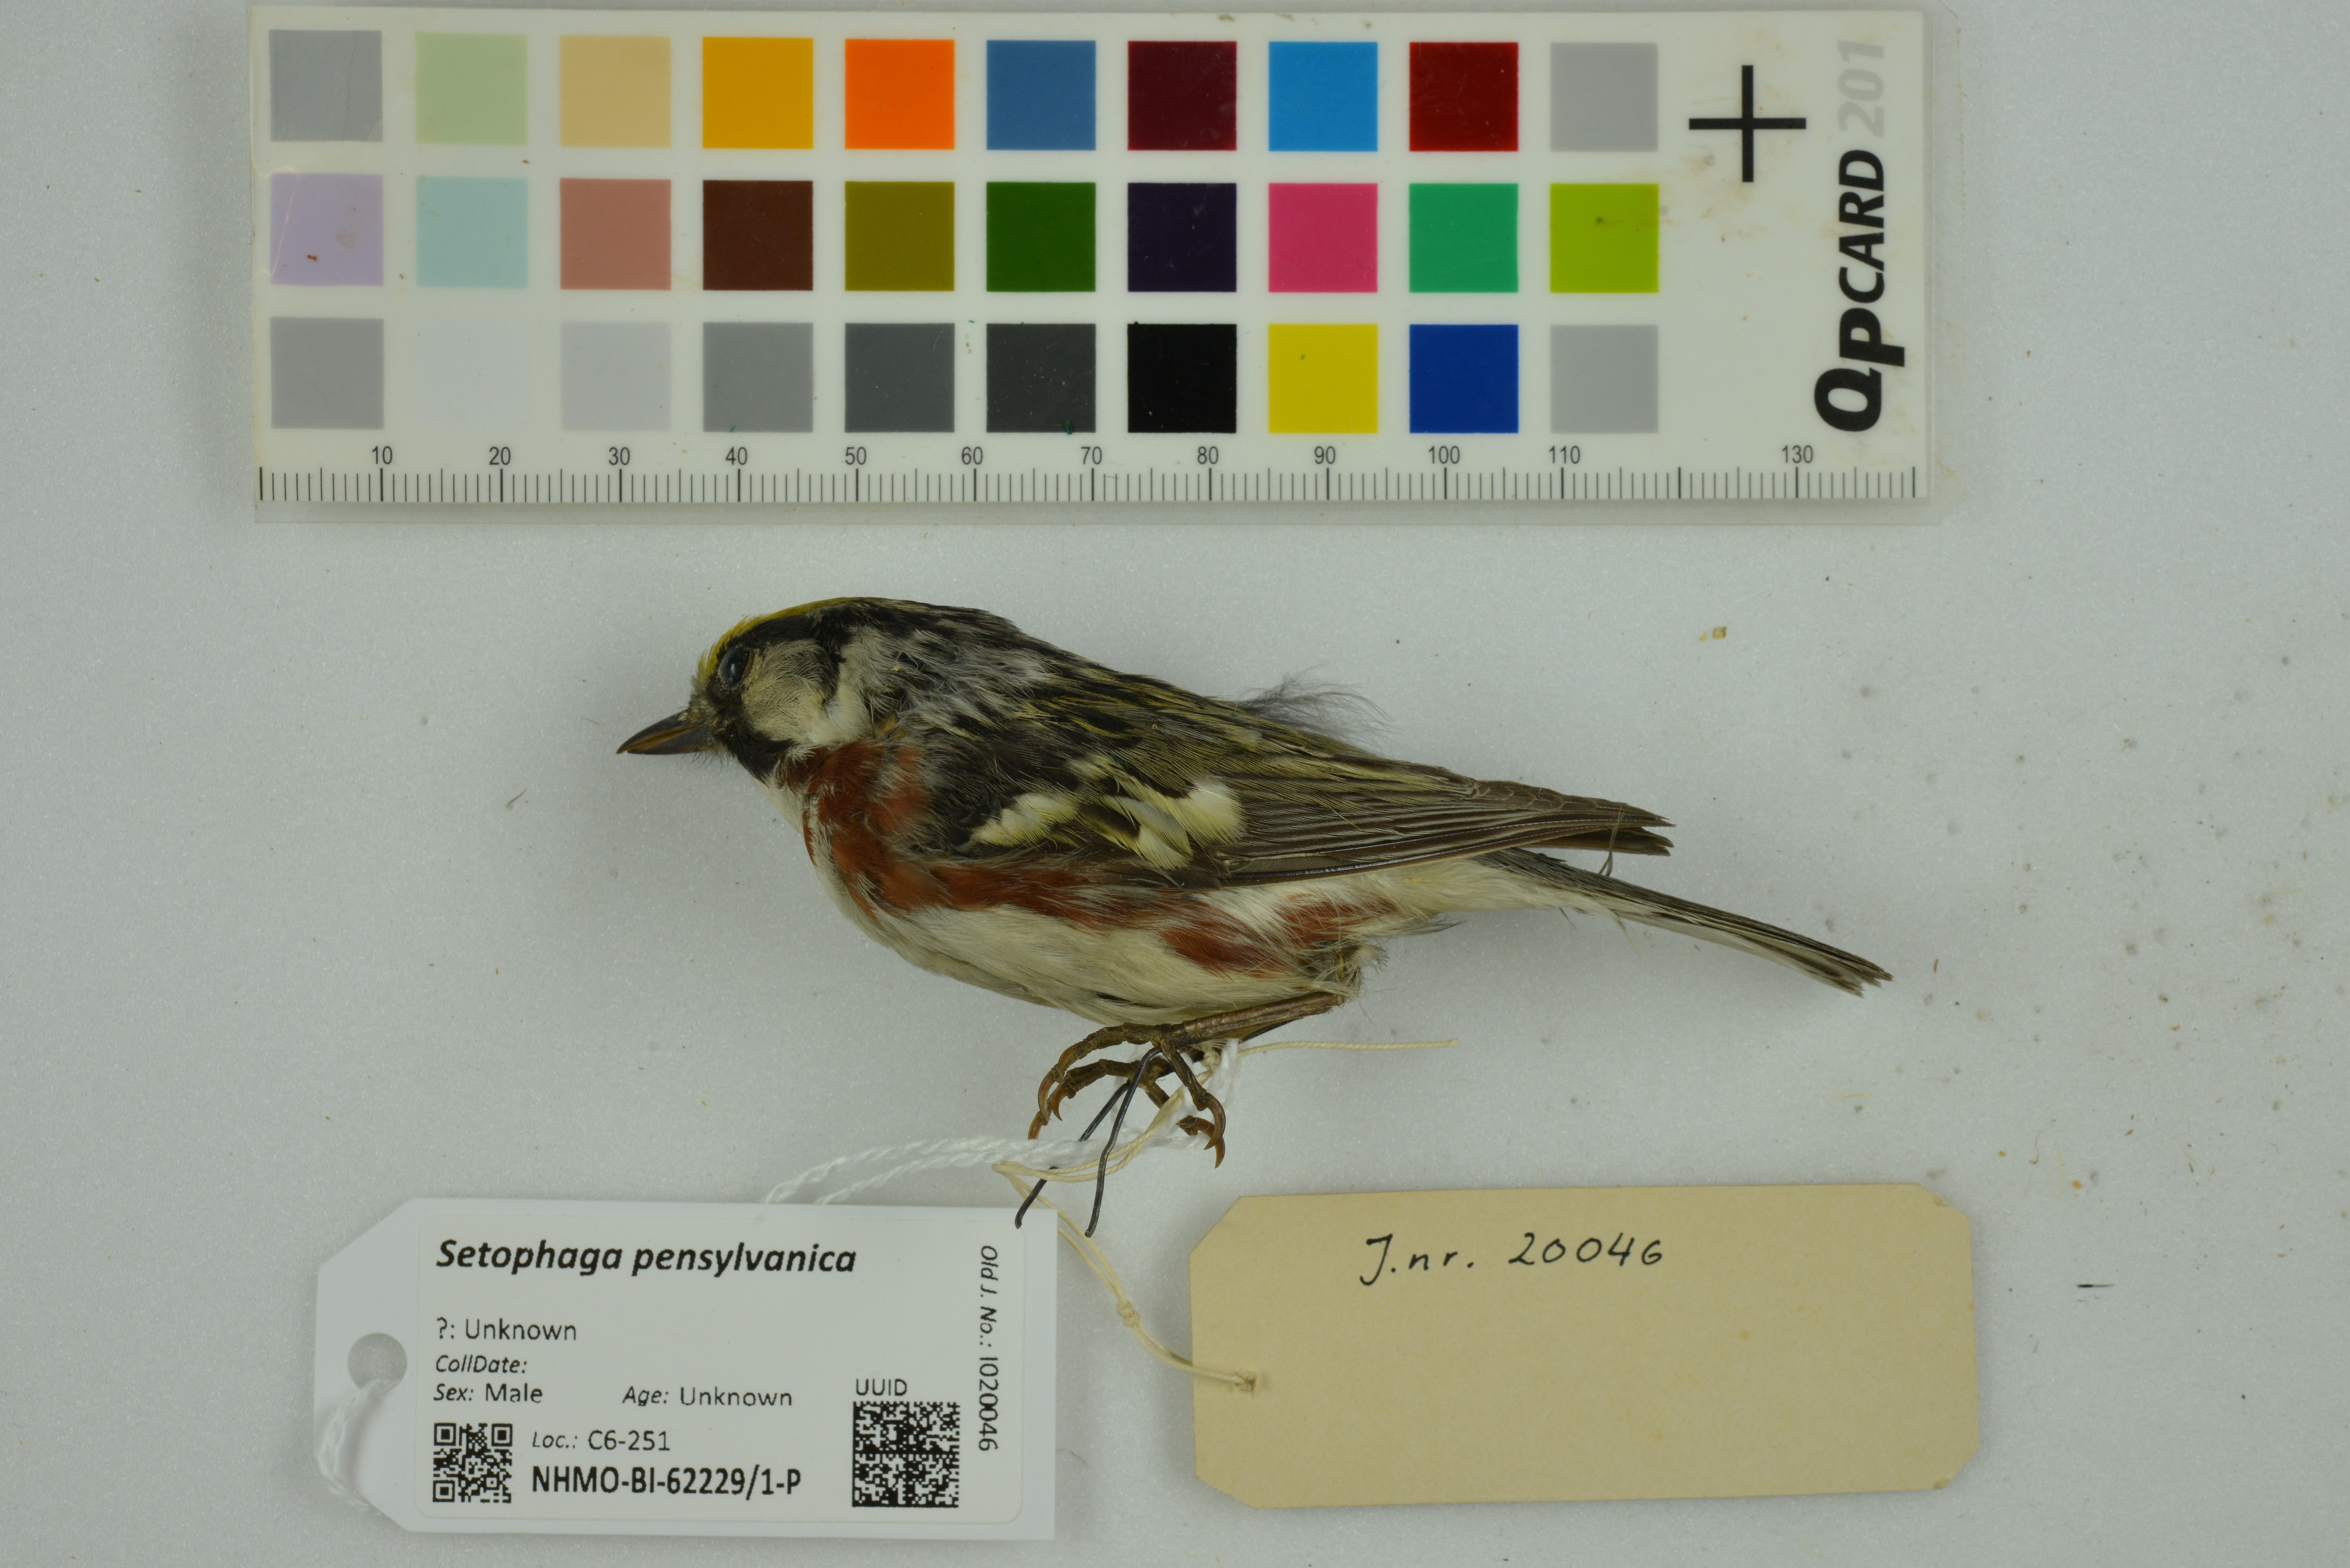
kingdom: Animalia
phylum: Chordata
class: Aves
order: Passeriformes
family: Parulidae
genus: Setophaga
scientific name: Setophaga pensylvanica
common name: Chestnut-sided warbler
